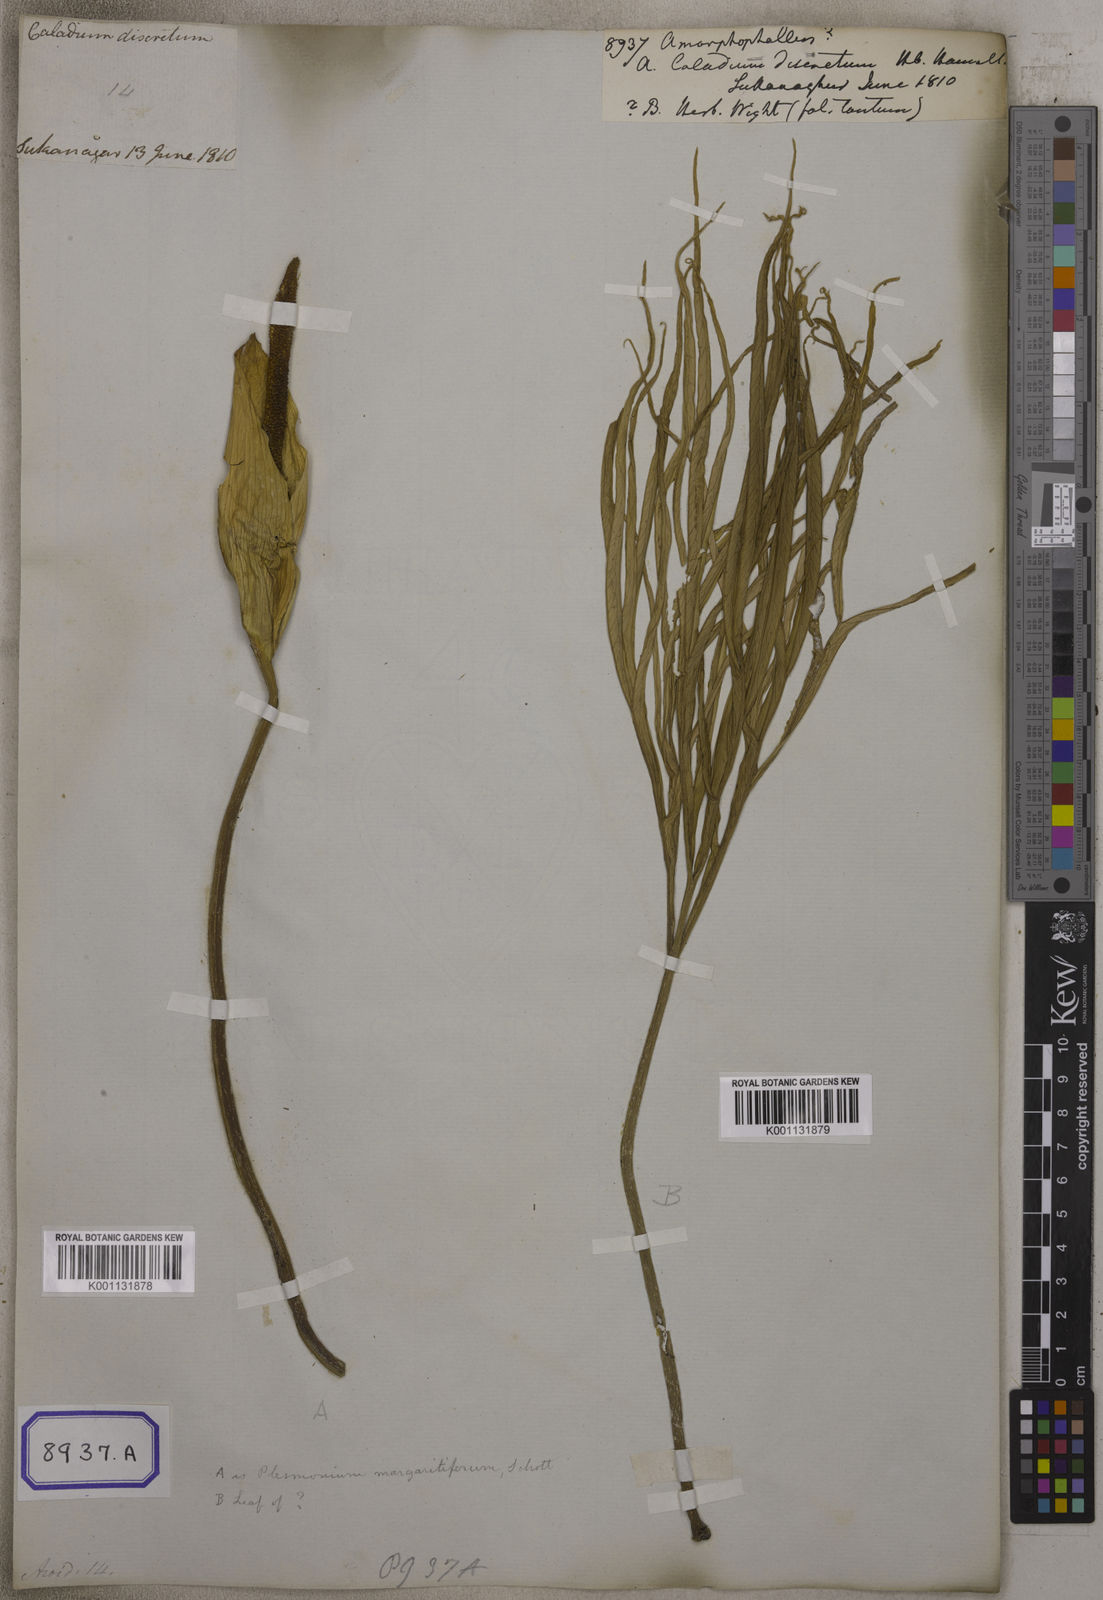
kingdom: Plantae
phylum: Tracheophyta
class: Liliopsida
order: Alismatales
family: Araceae
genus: Amorphophallus
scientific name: Amorphophallus
